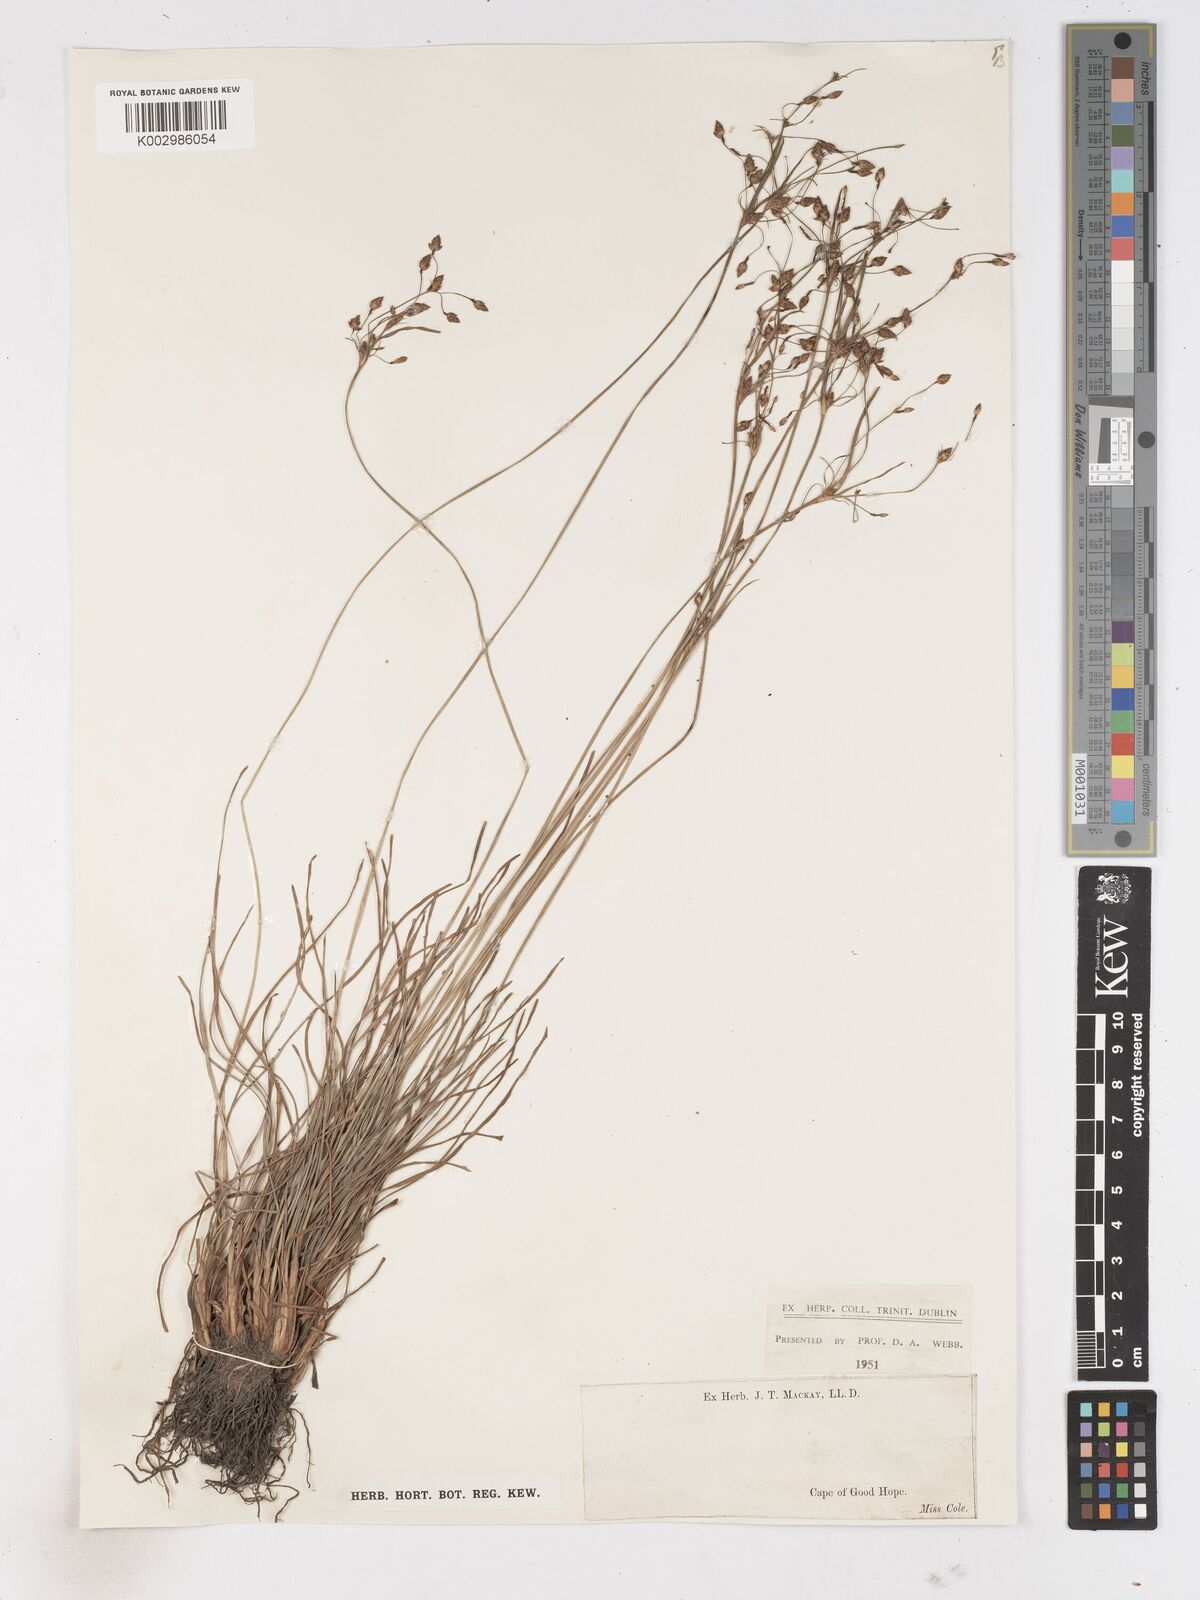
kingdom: Plantae
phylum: Tracheophyta
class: Liliopsida
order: Poales
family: Cyperaceae
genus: Fimbristylis
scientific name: Fimbristylis
